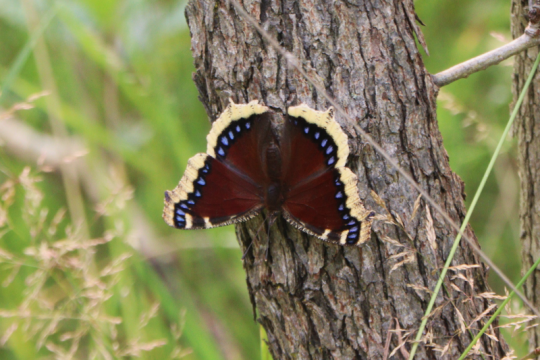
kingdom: Animalia
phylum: Arthropoda
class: Insecta
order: Lepidoptera
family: Nymphalidae
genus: Nymphalis
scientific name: Nymphalis antiopa
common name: Mourning Cloak
